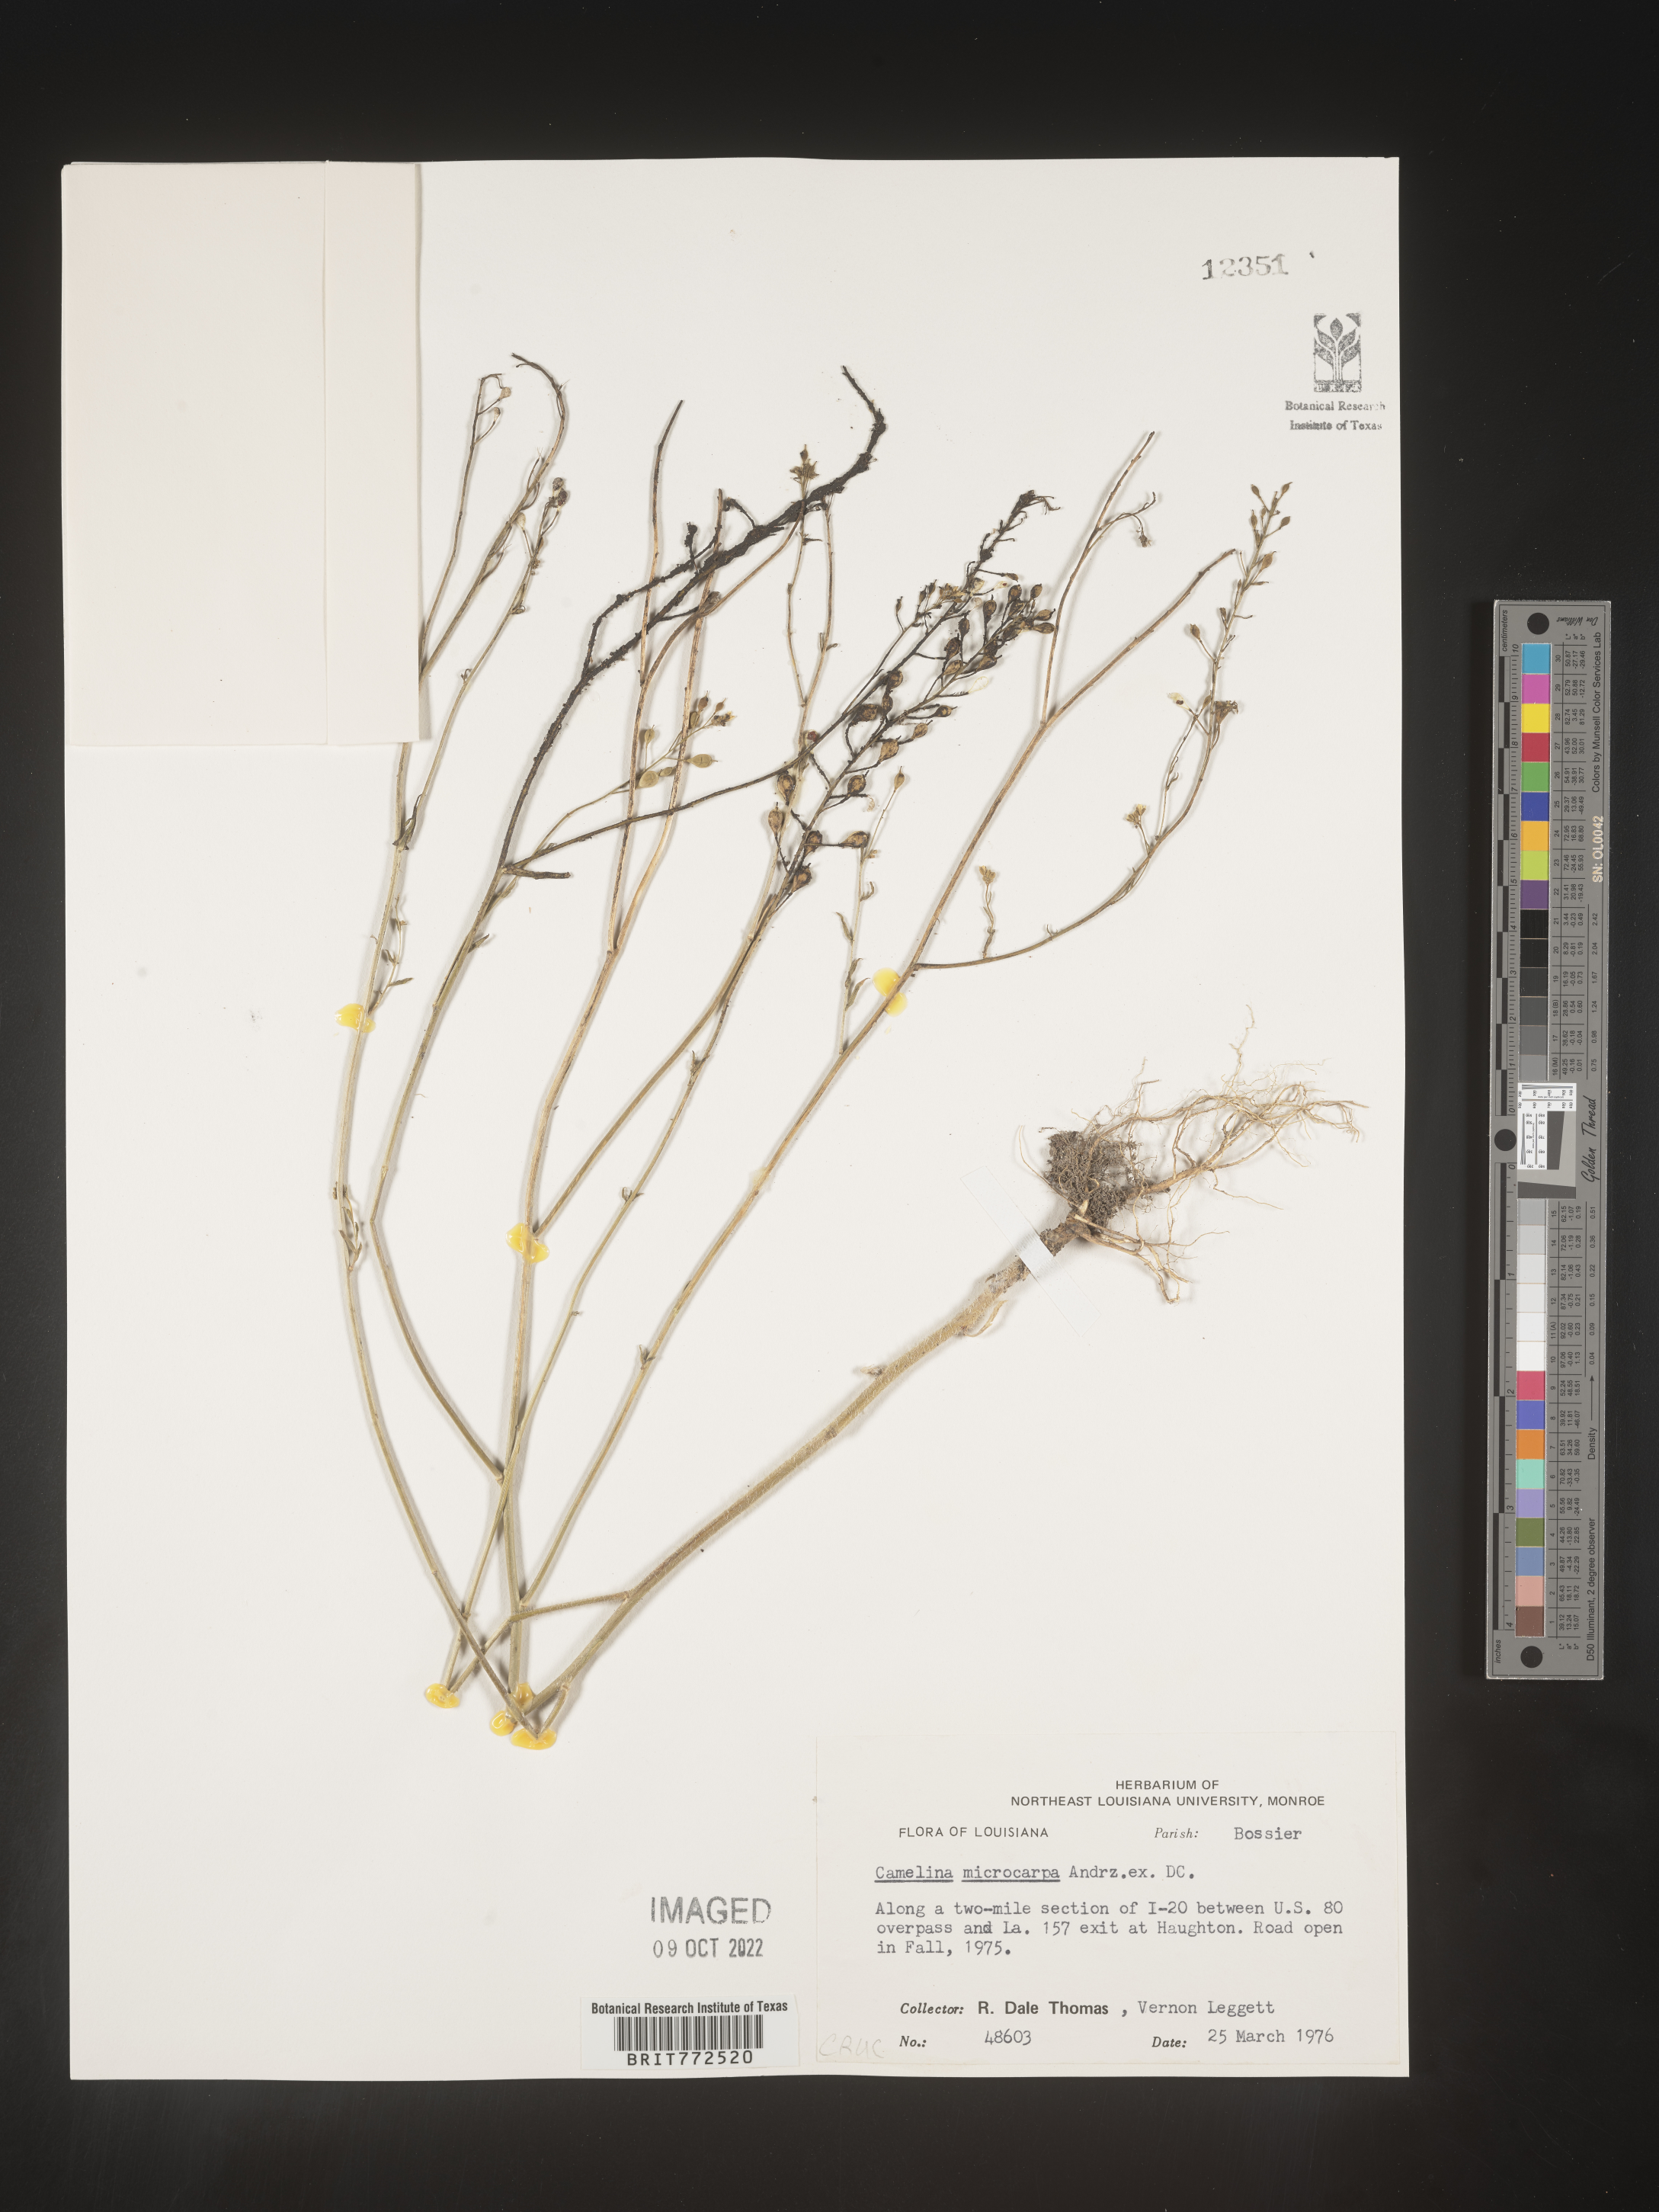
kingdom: Plantae
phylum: Tracheophyta
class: Magnoliopsida
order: Brassicales
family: Brassicaceae
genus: Camelina
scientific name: Camelina microcarpa
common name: Lesser gold-of-pleasure
